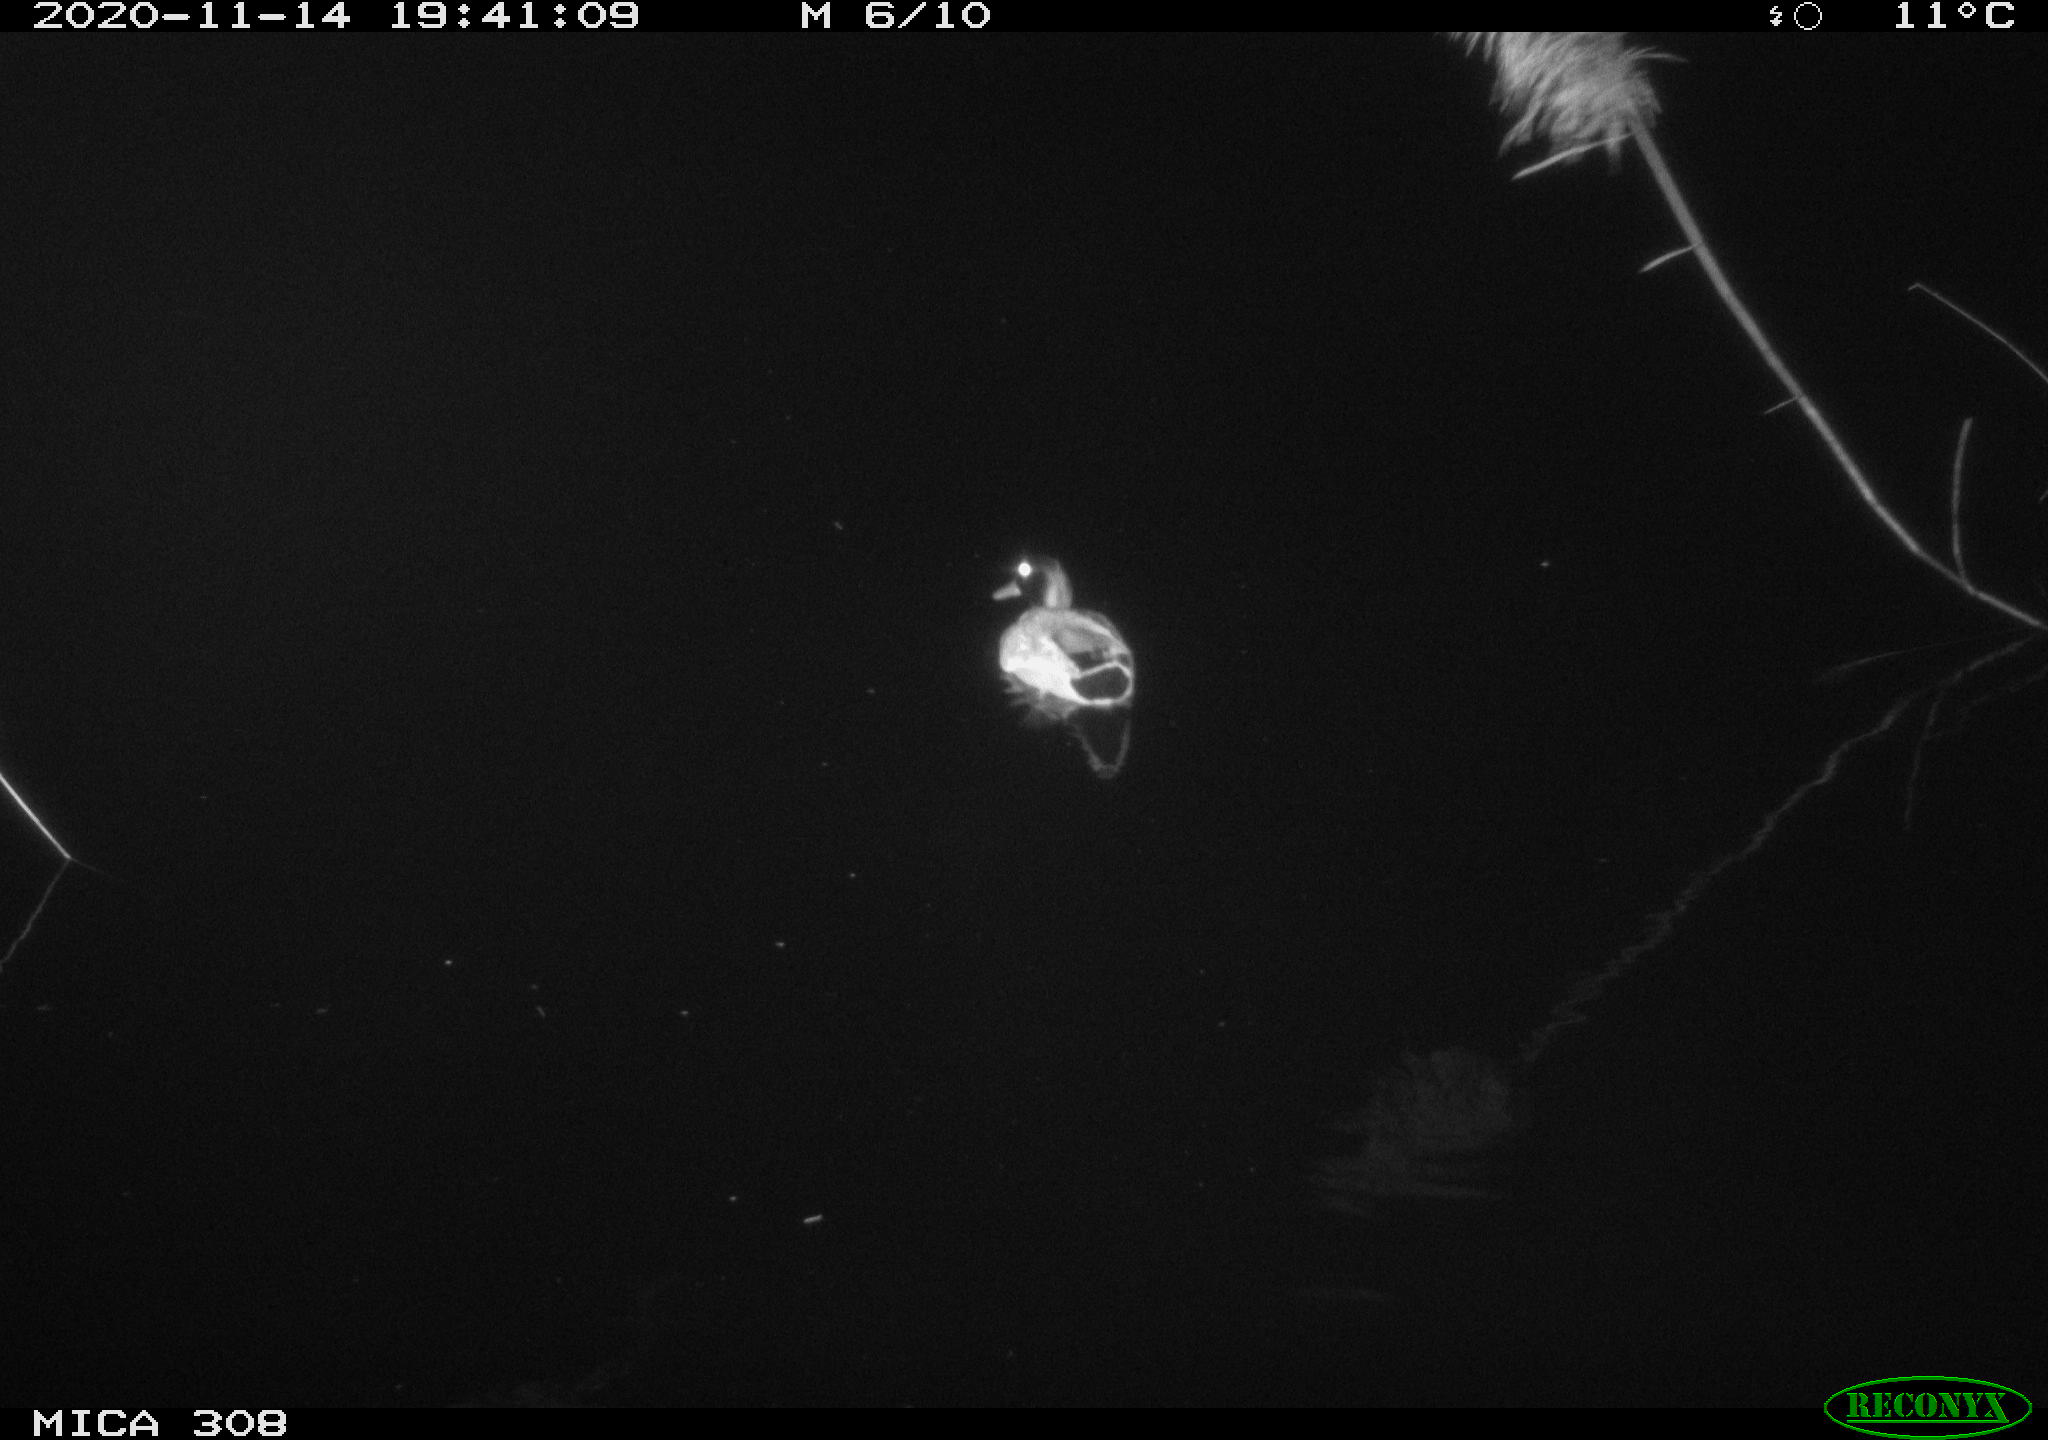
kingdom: Animalia
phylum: Chordata
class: Aves
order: Anseriformes
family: Anatidae
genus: Anas
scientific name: Anas platyrhynchos
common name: Mallard
